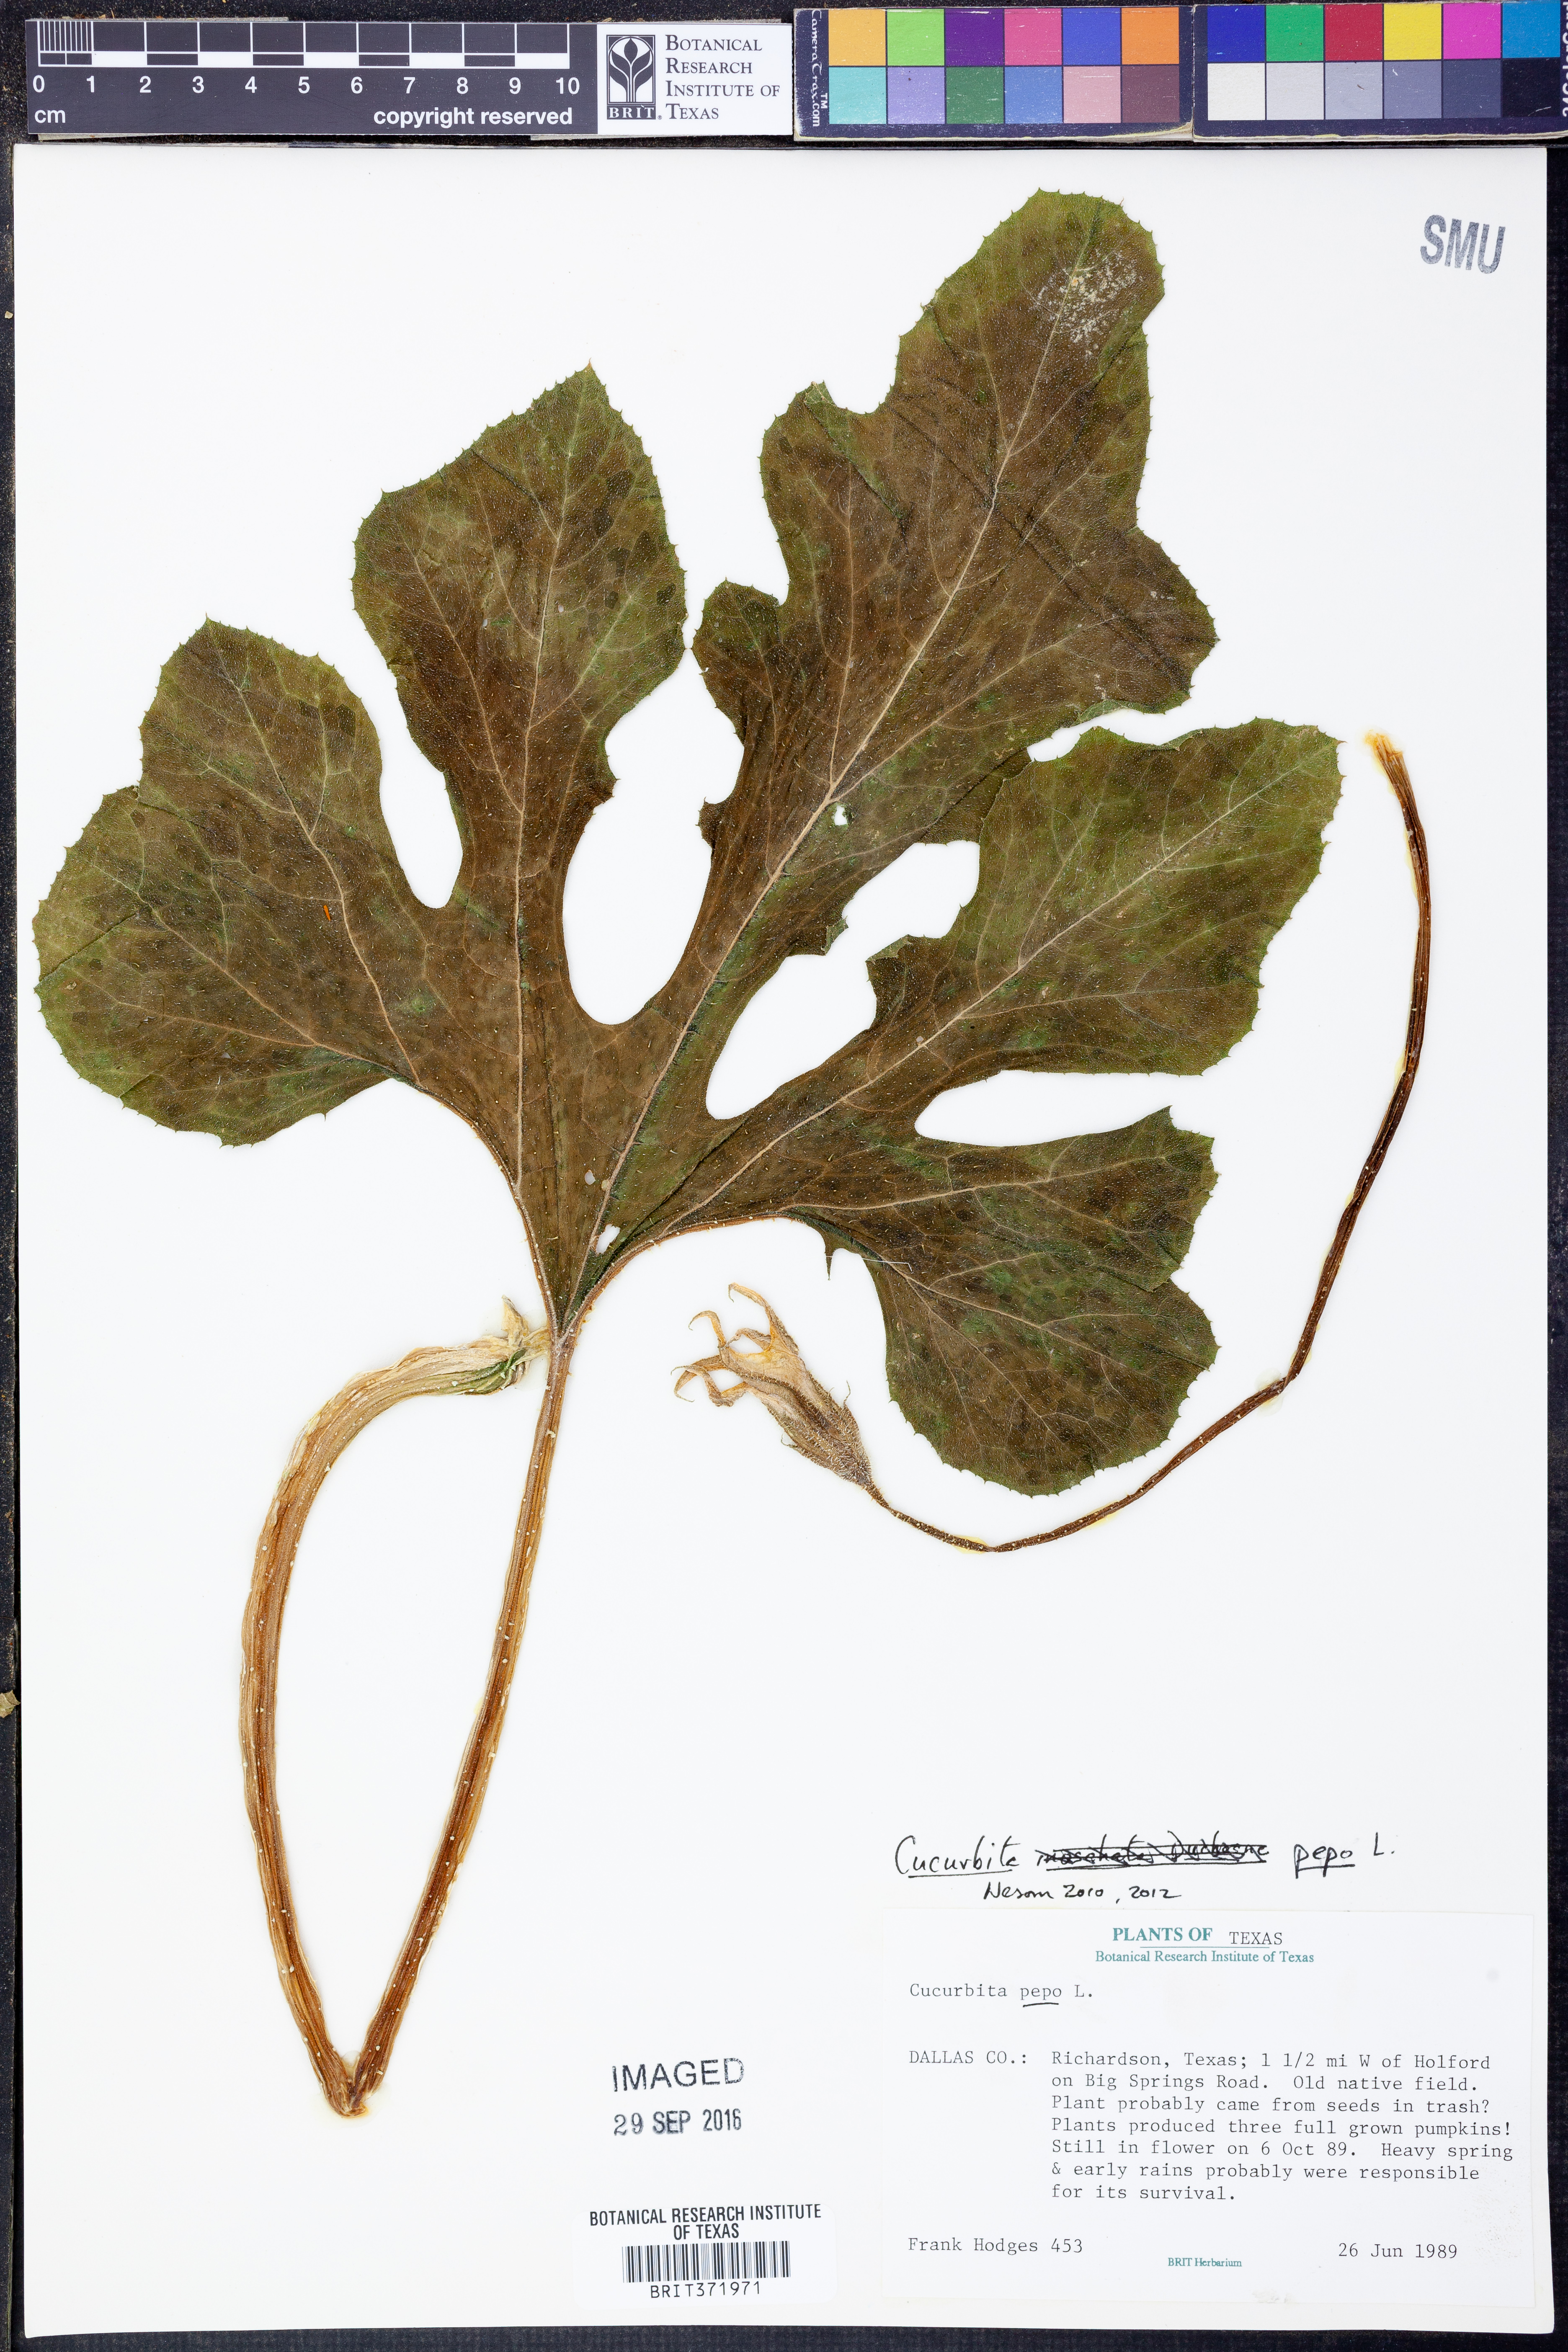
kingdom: Plantae
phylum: Tracheophyta
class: Magnoliopsida
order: Cucurbitales
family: Cucurbitaceae
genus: Cucurbita
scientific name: Cucurbita pepo
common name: Marrow
